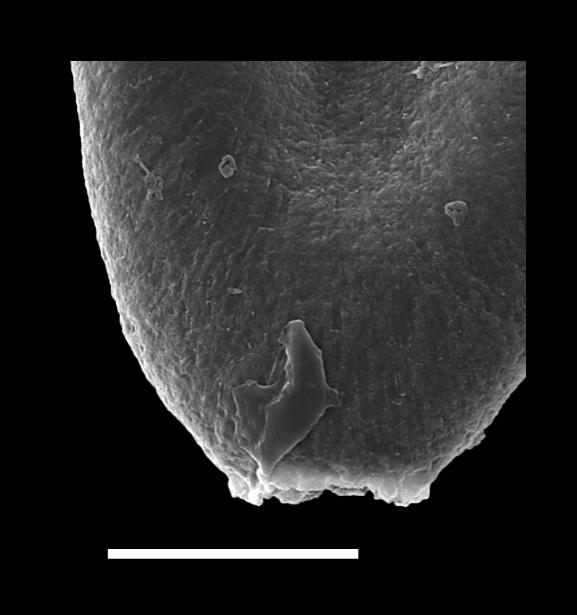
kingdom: Animalia
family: Conochitinidae
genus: Conochitina
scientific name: Conochitina
